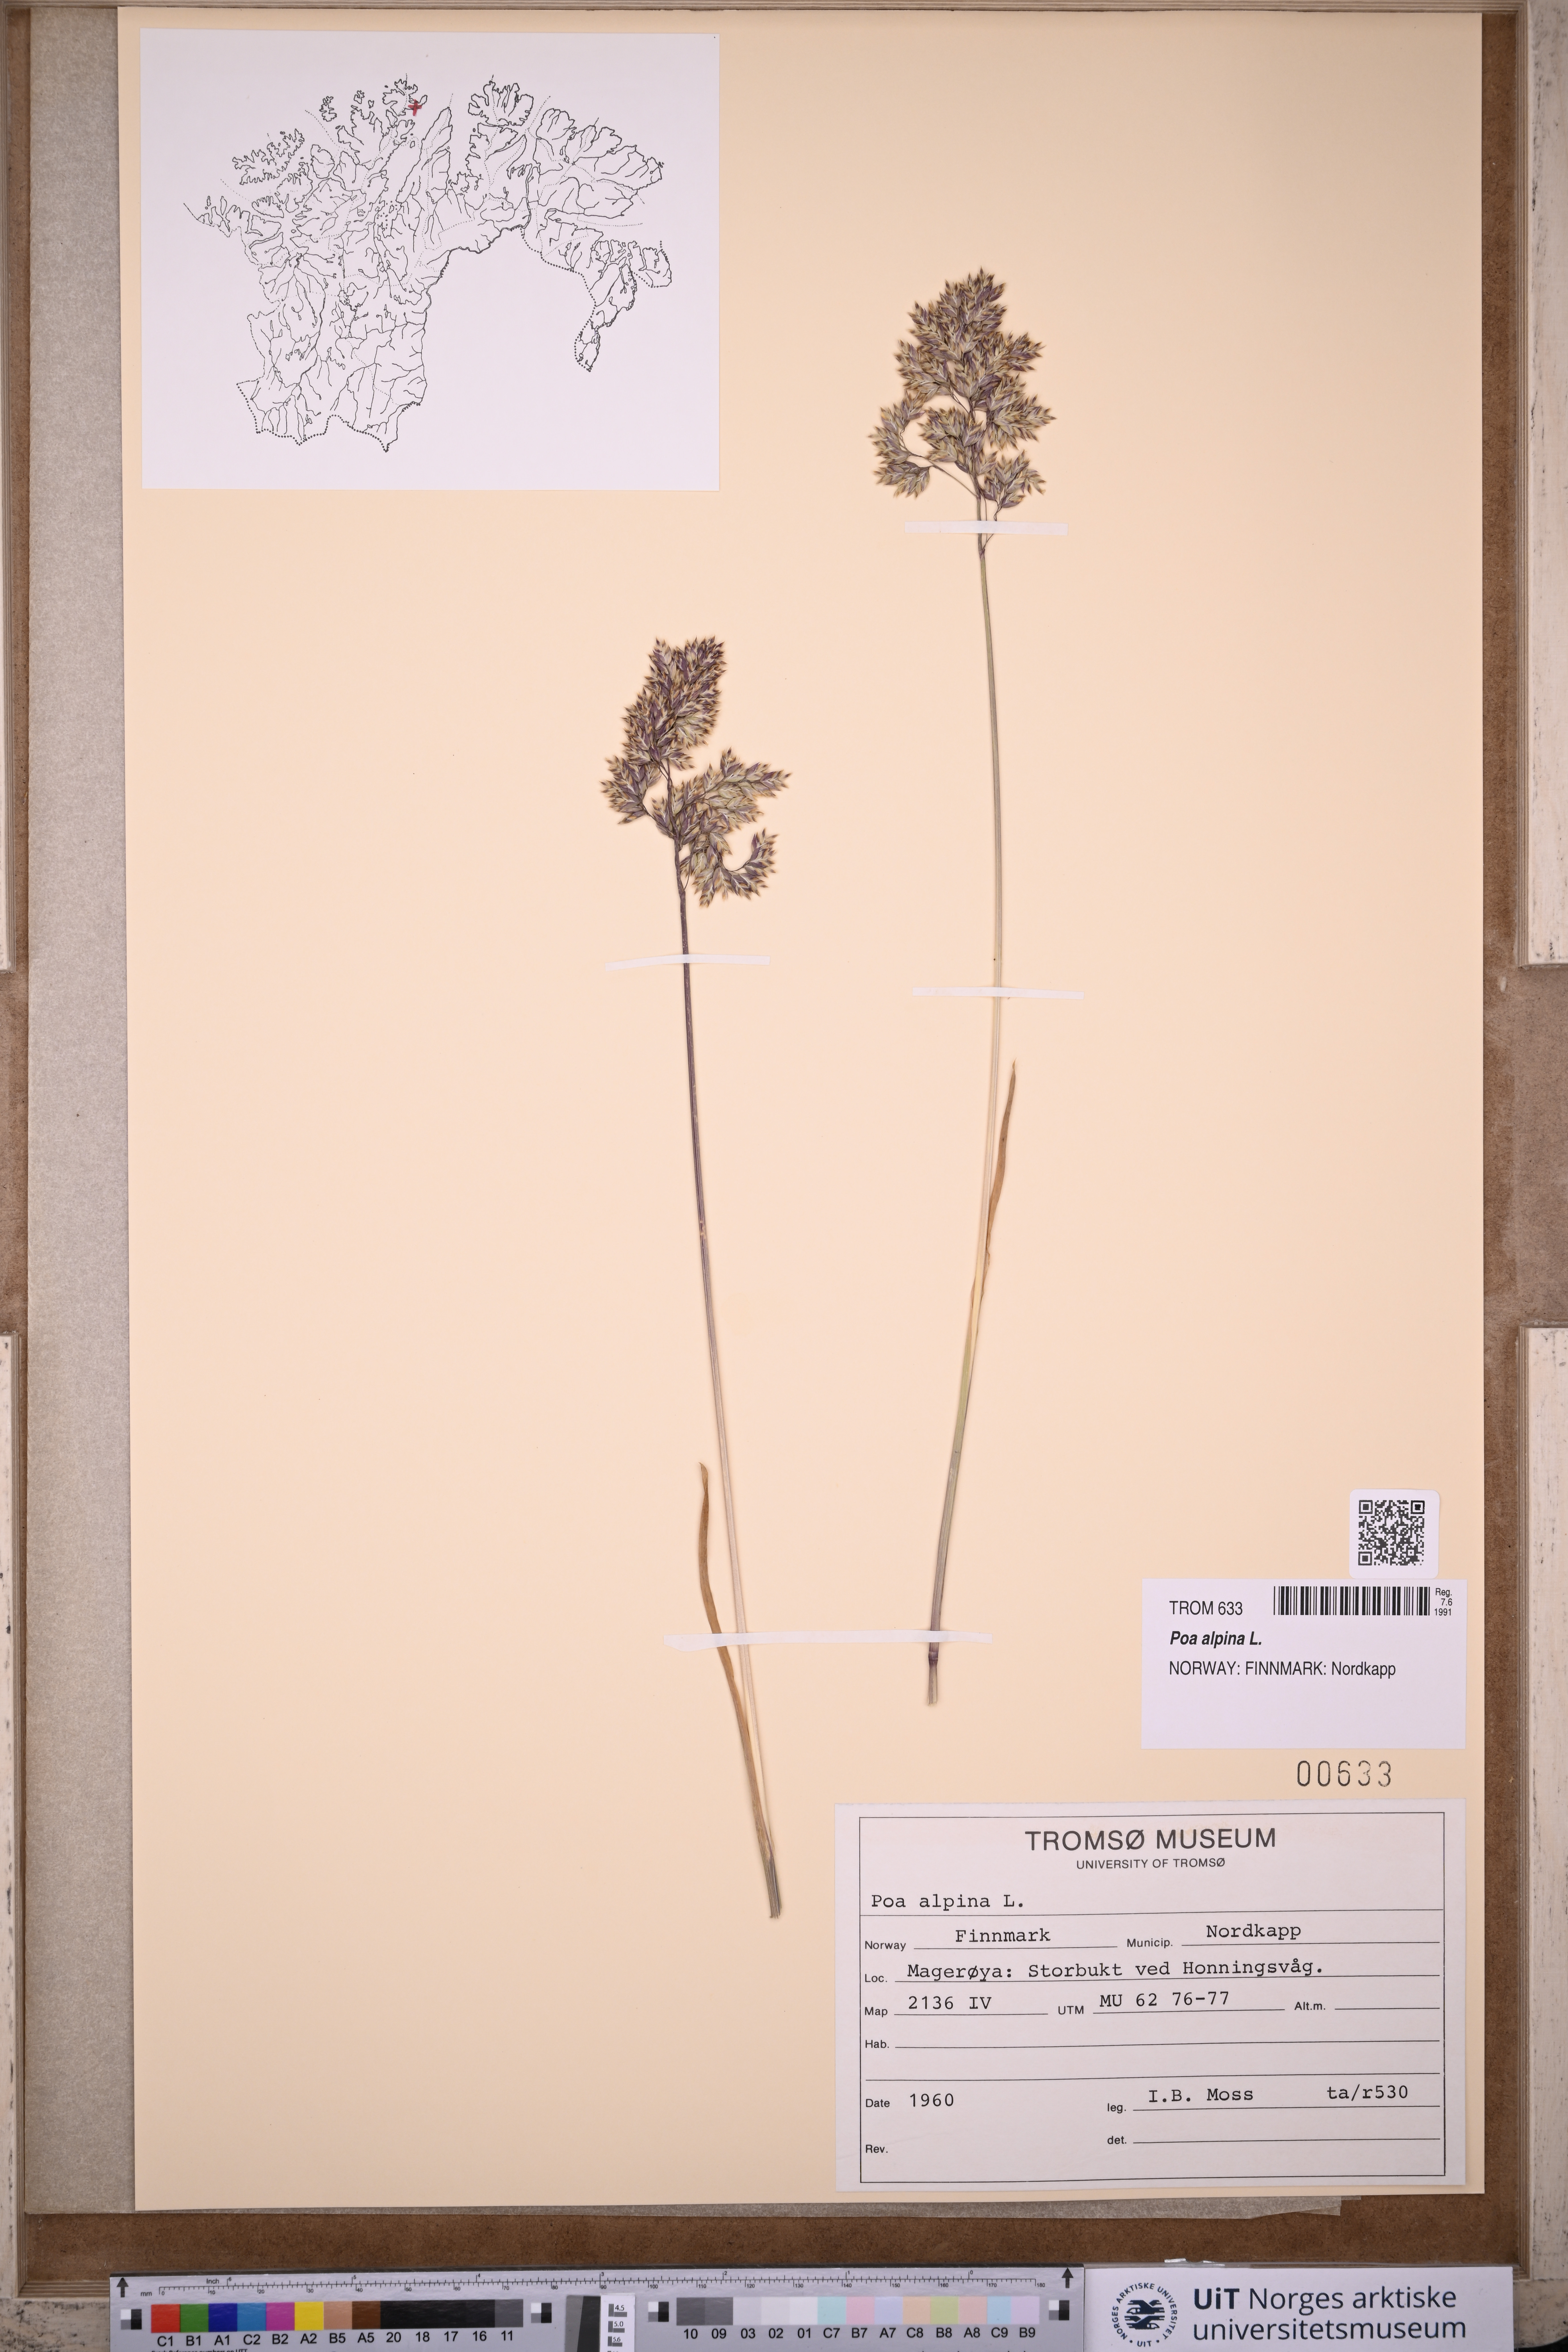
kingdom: Plantae
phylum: Tracheophyta
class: Liliopsida
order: Poales
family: Poaceae
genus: Poa
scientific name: Poa alpina
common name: Alpine bluegrass
